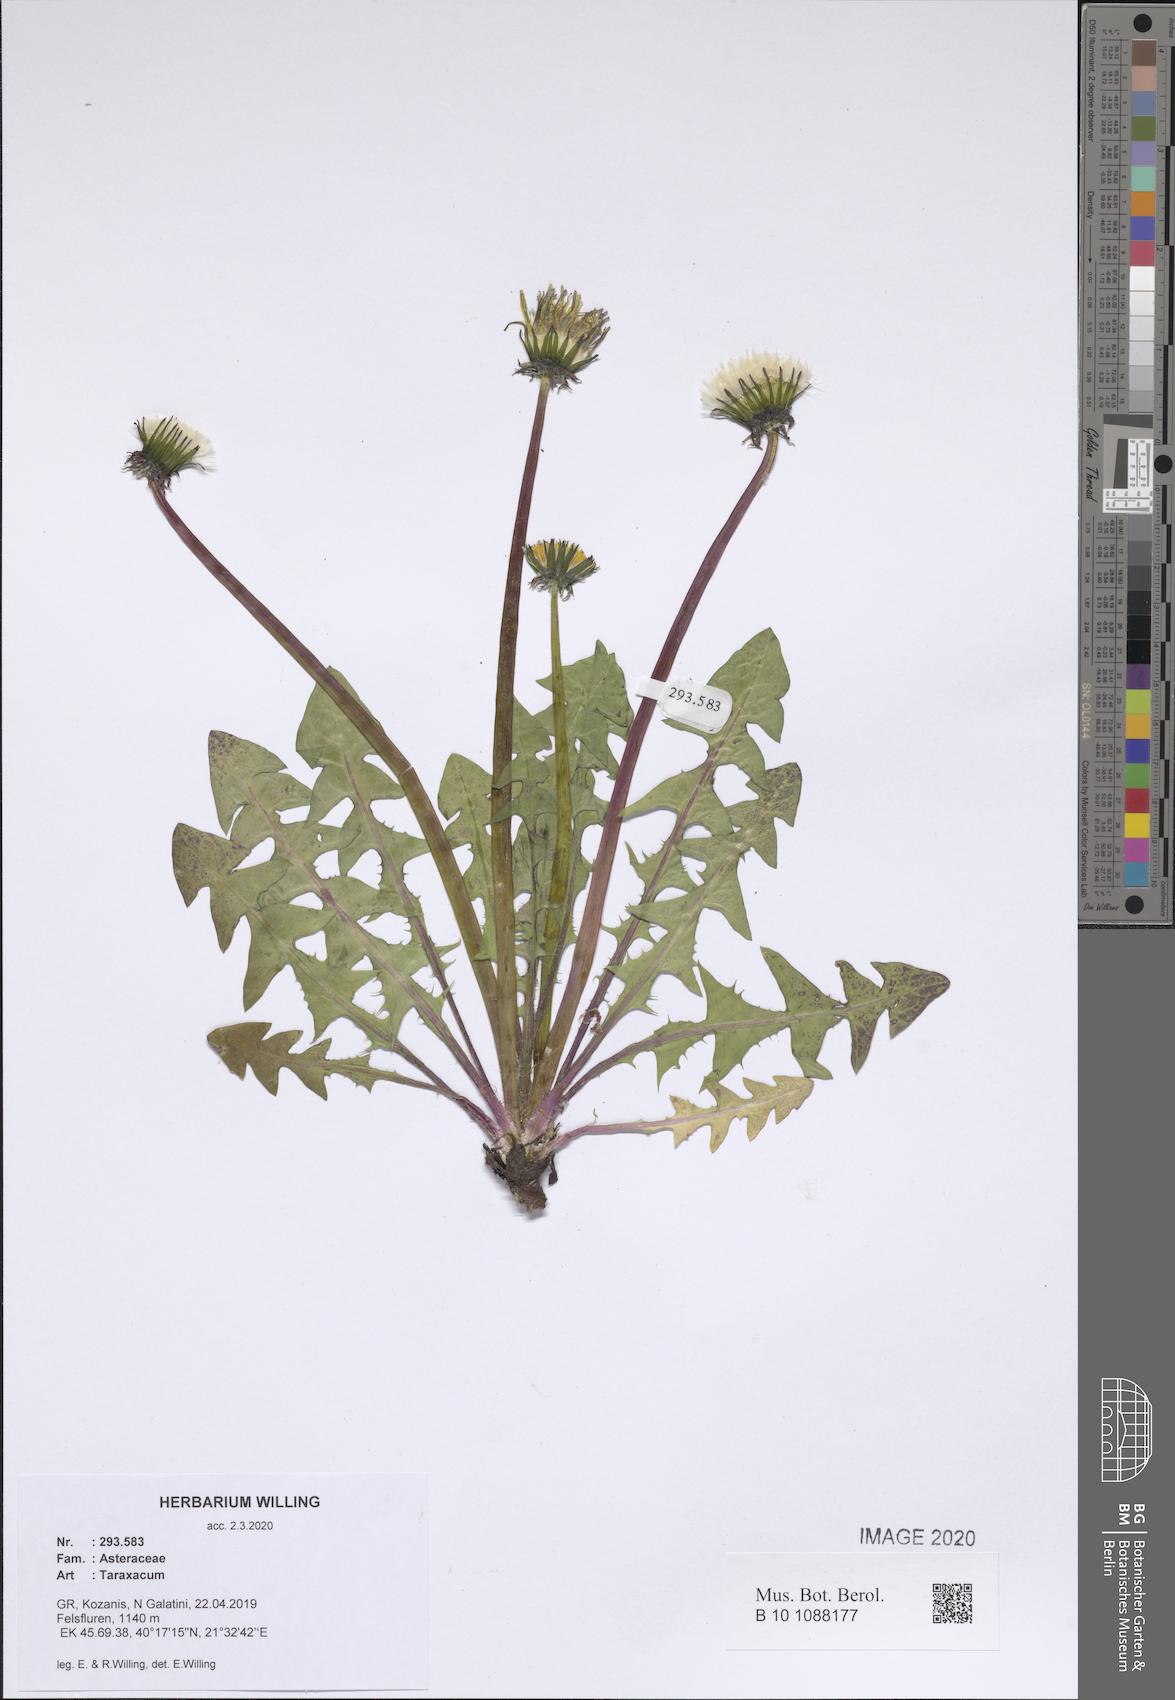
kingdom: Plantae
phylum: Tracheophyta
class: Magnoliopsida
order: Asterales
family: Asteraceae
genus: Taraxacum
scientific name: Taraxacum
